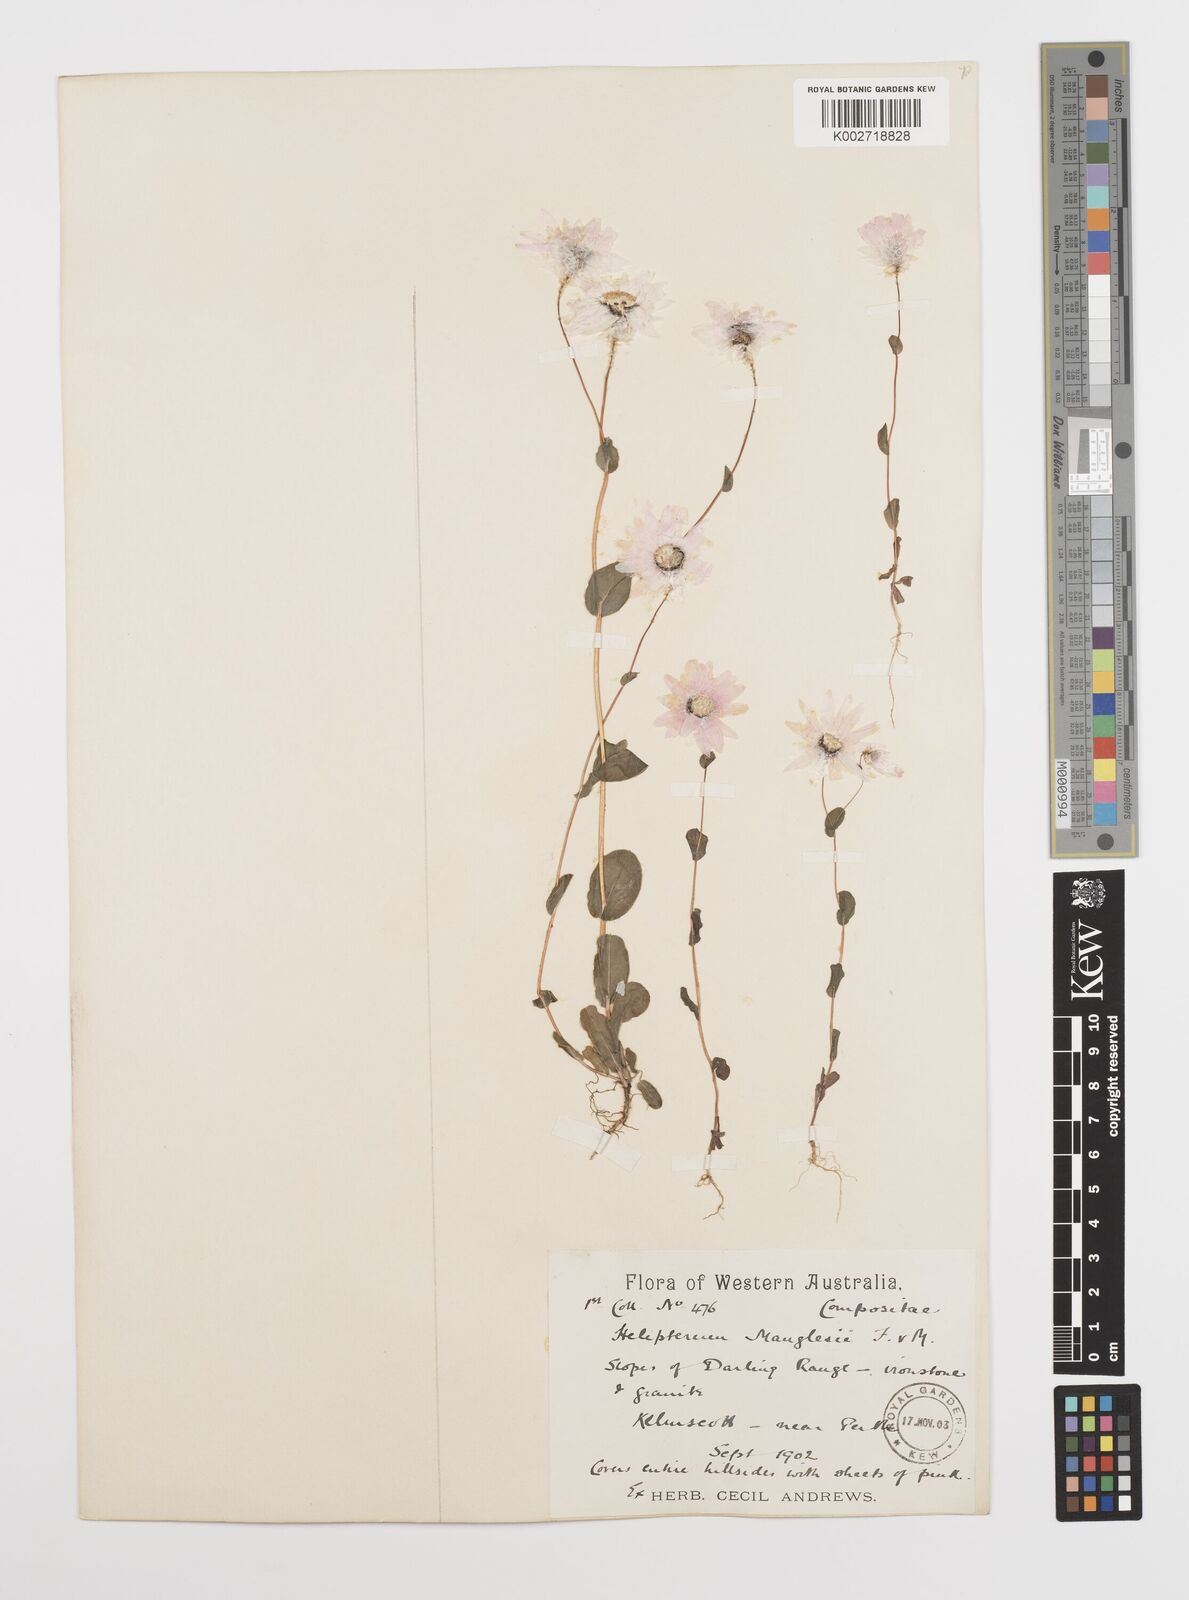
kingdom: Plantae
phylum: Tracheophyta
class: Magnoliopsida
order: Asterales
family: Asteraceae
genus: Rhodanthe
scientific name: Rhodanthe manglesii
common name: Pink sunray
